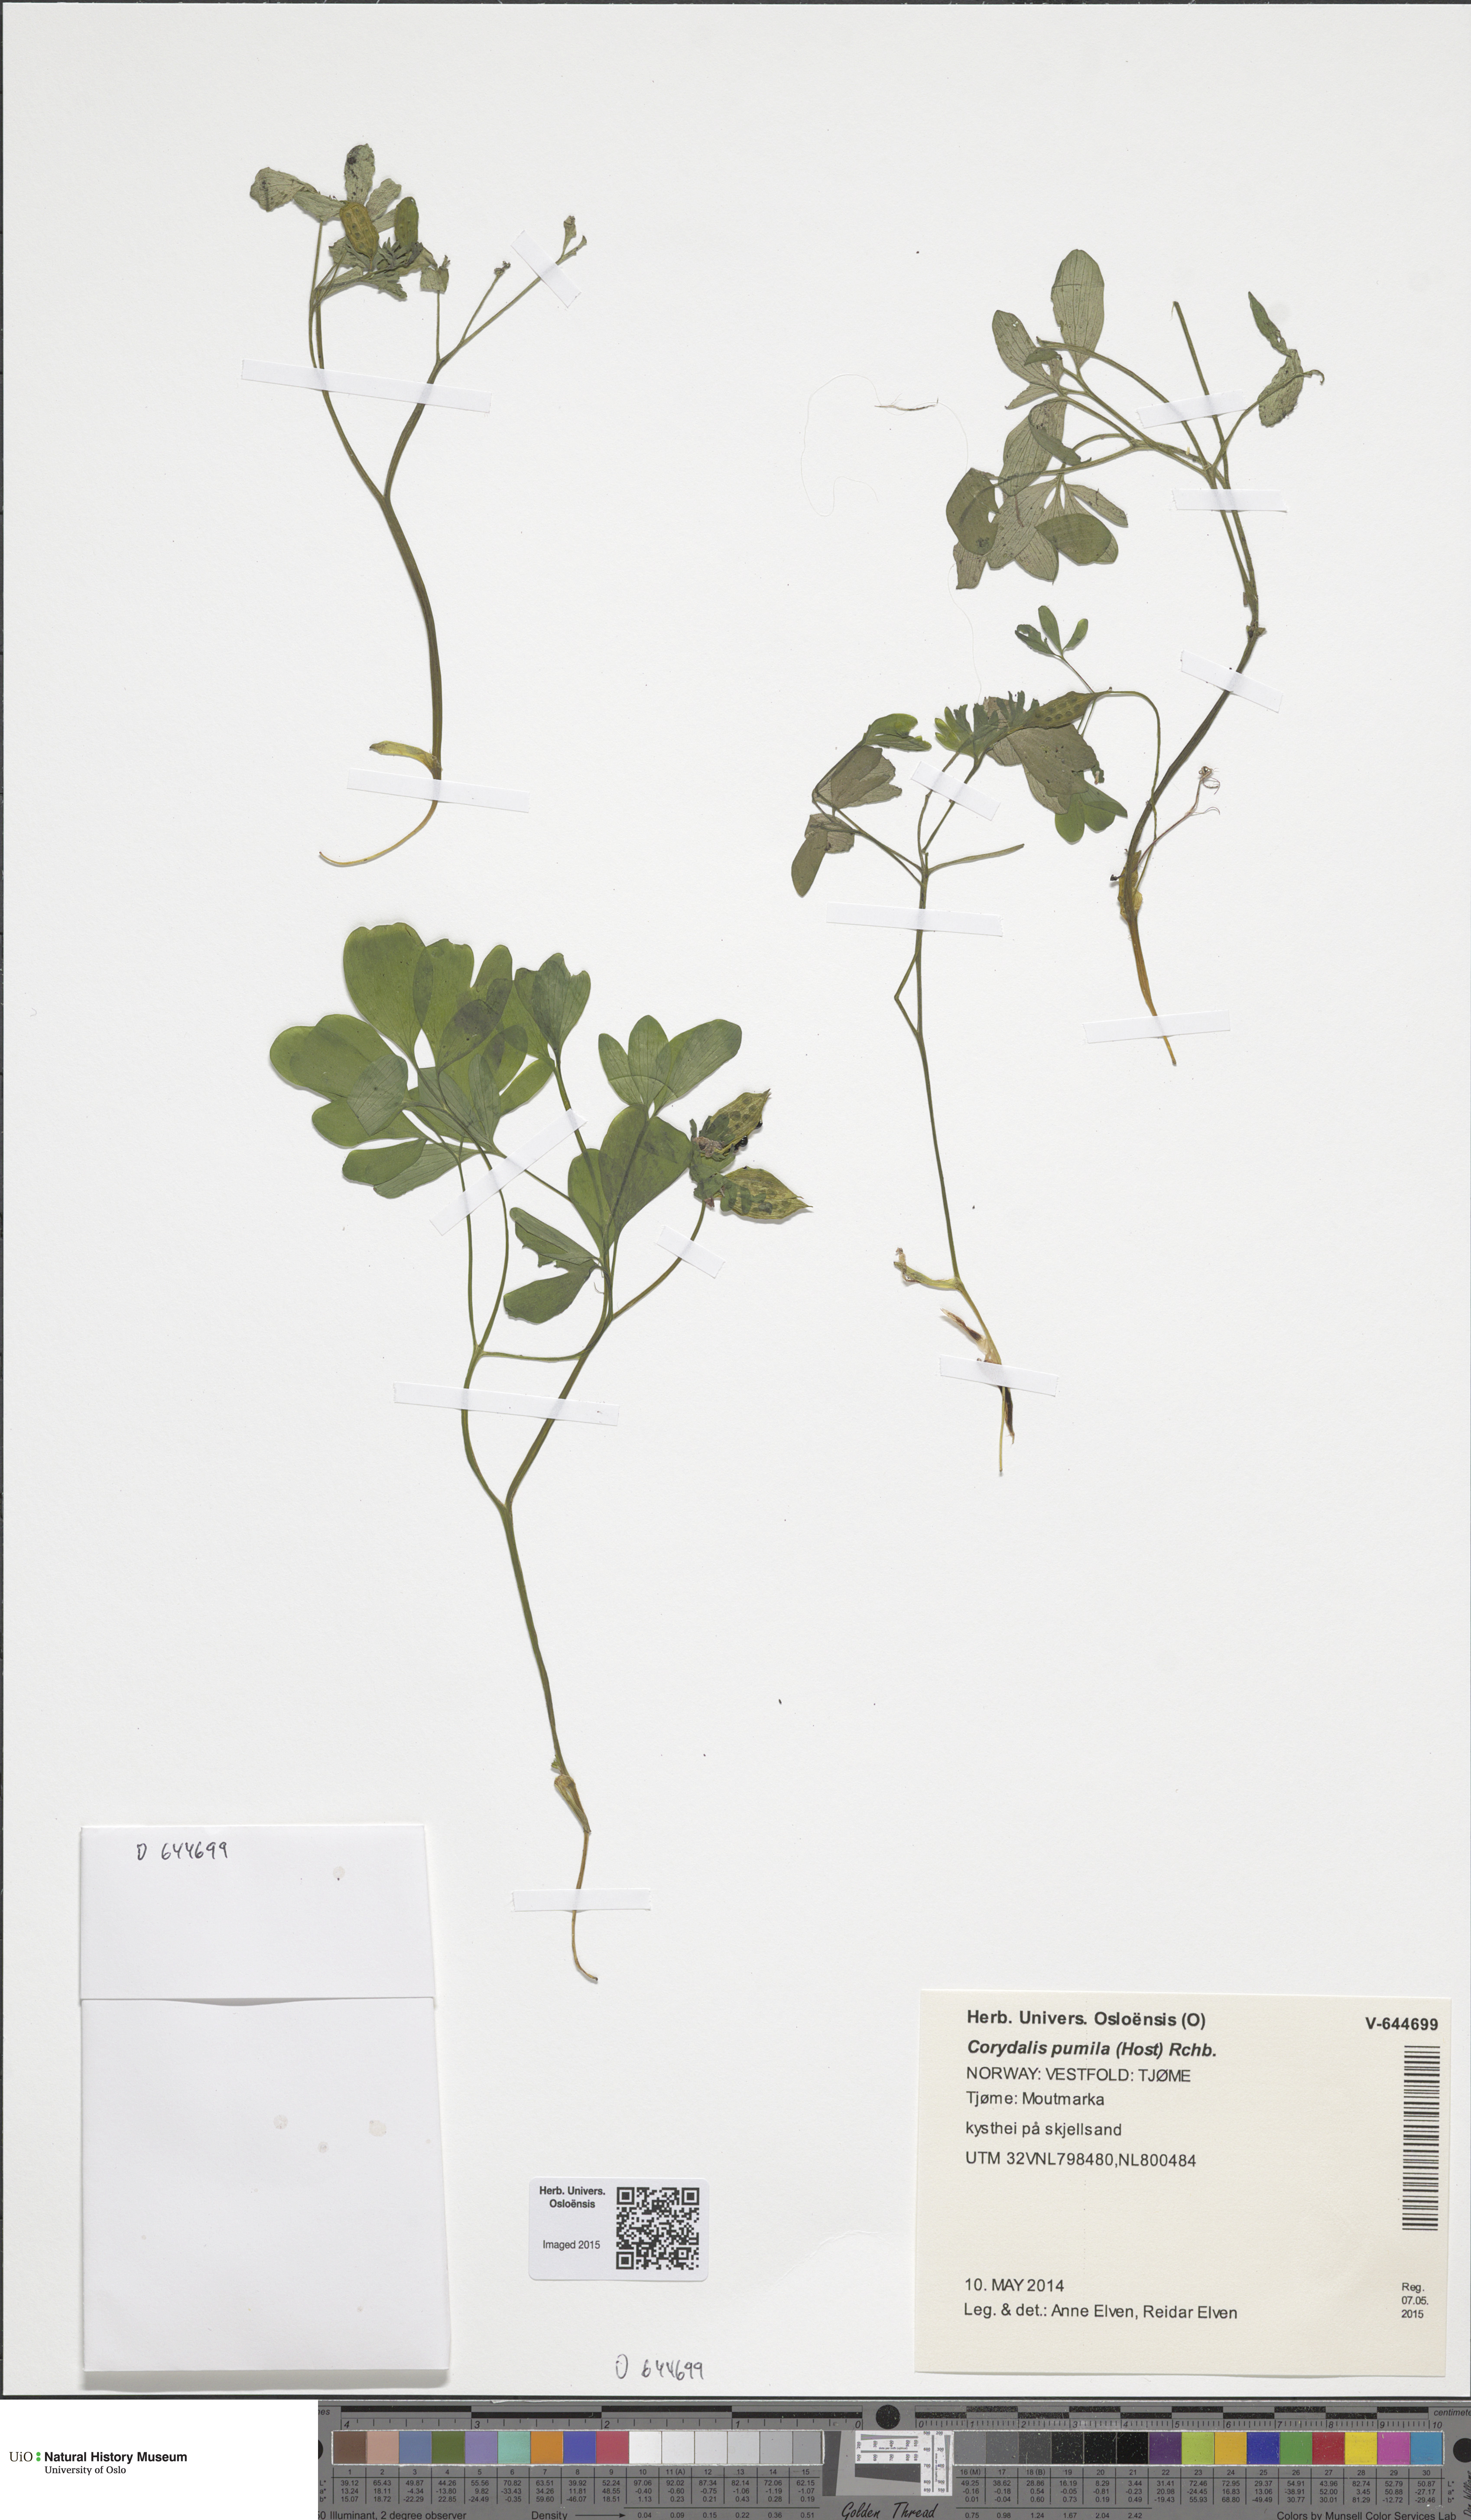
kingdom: Plantae
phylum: Tracheophyta
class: Magnoliopsida
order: Ranunculales
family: Papaveraceae
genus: Corydalis
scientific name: Corydalis pumila
